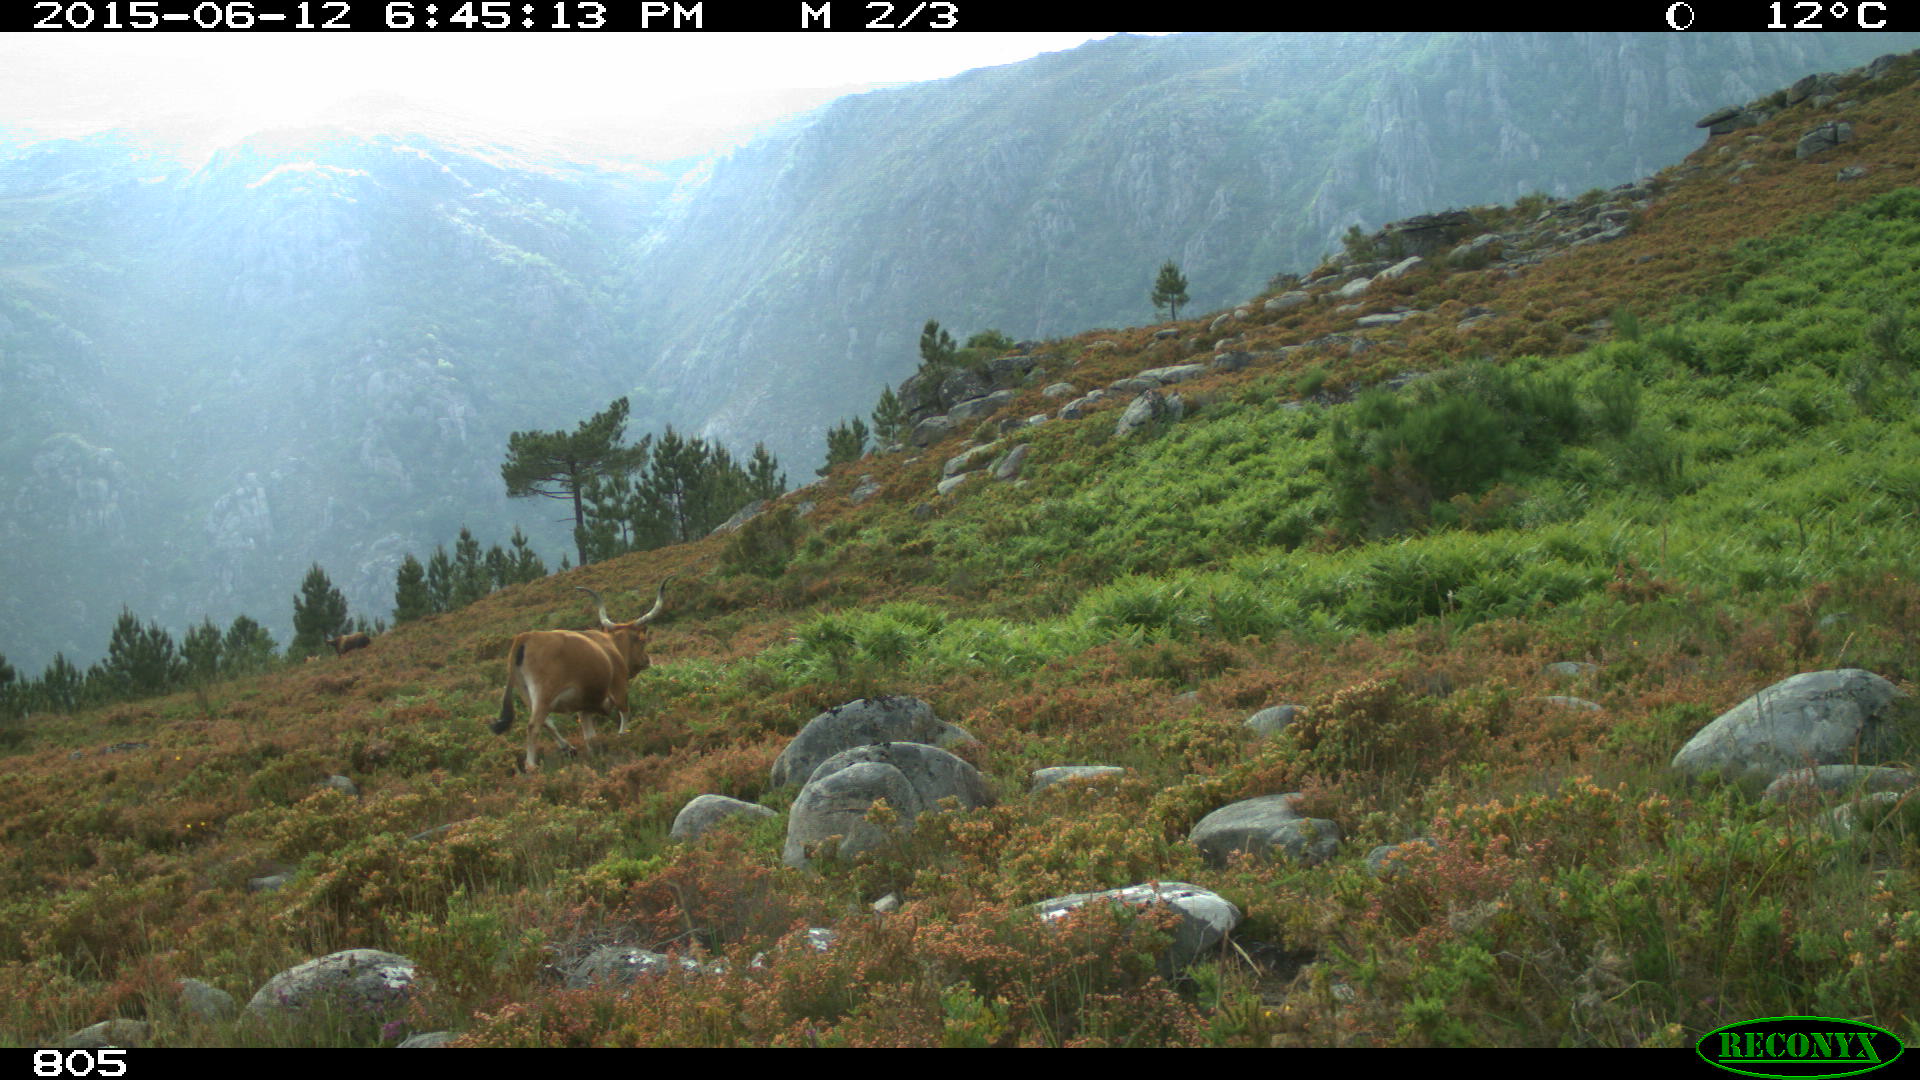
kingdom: Animalia
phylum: Chordata
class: Mammalia
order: Artiodactyla
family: Bovidae
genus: Bos
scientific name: Bos taurus
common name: Domesticated cattle
